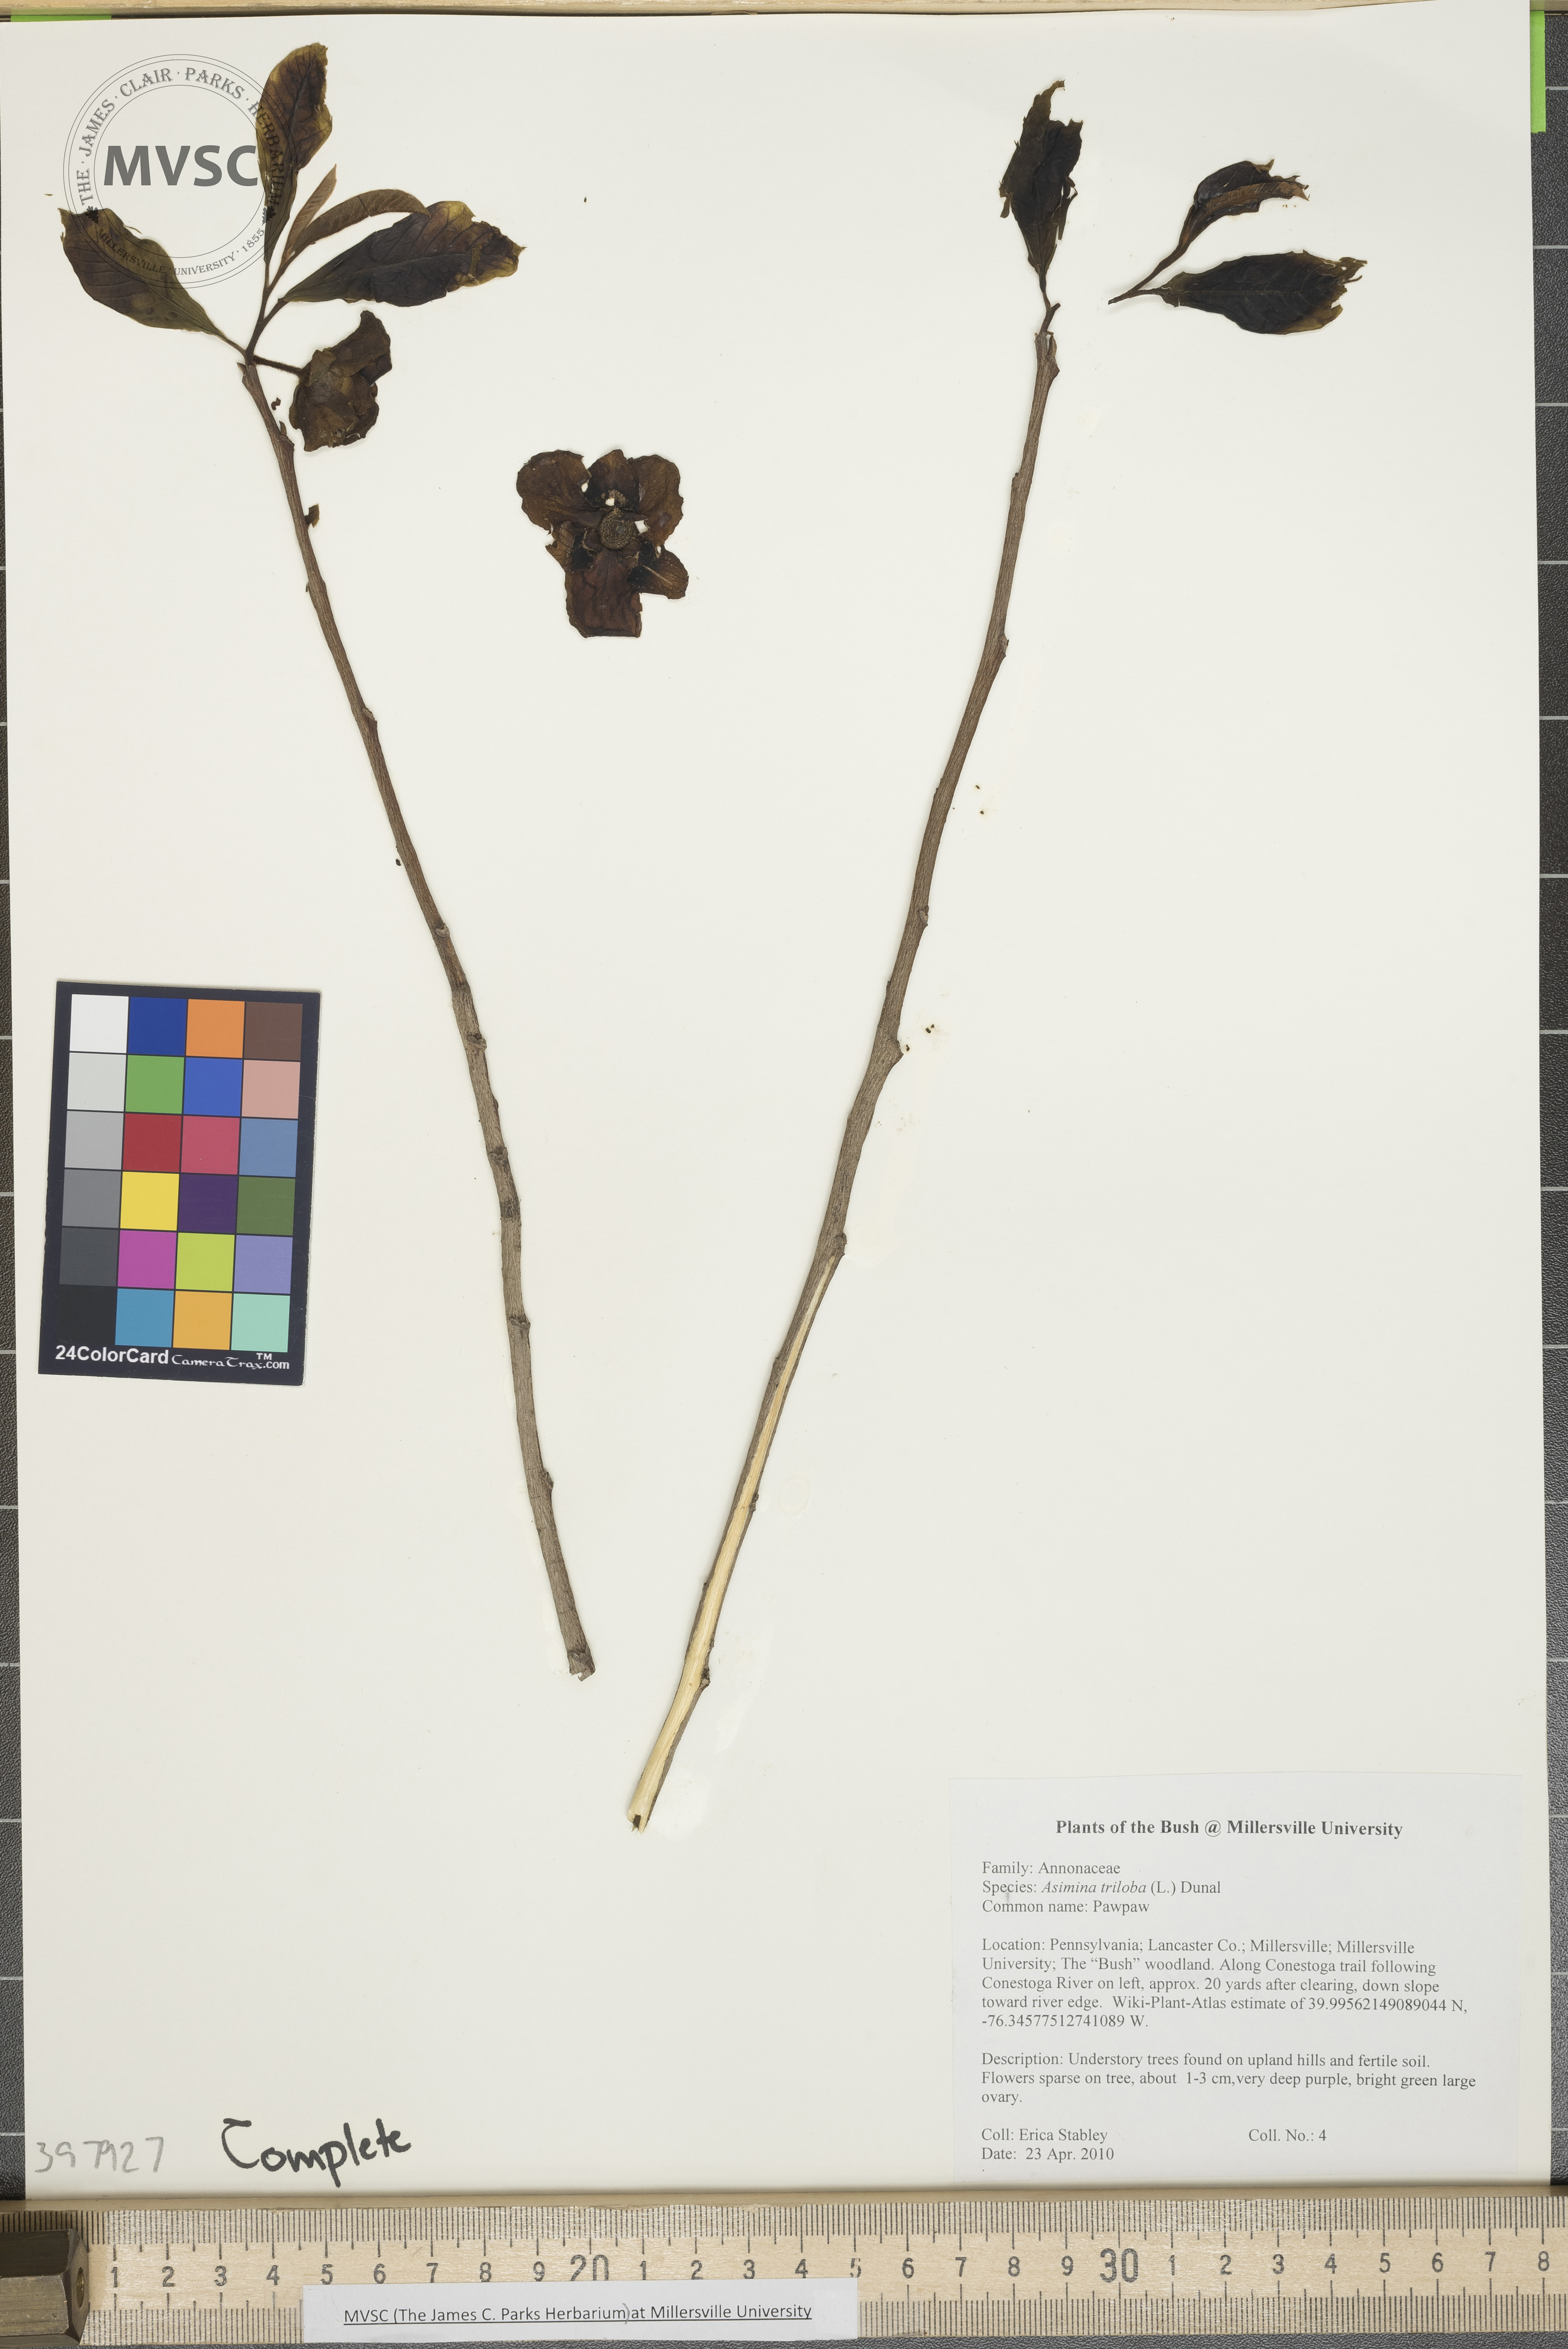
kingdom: Plantae
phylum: Tracheophyta
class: Magnoliopsida
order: Magnoliales
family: Annonaceae
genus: Asimina
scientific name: Asimina triloba
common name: Pawpaw
